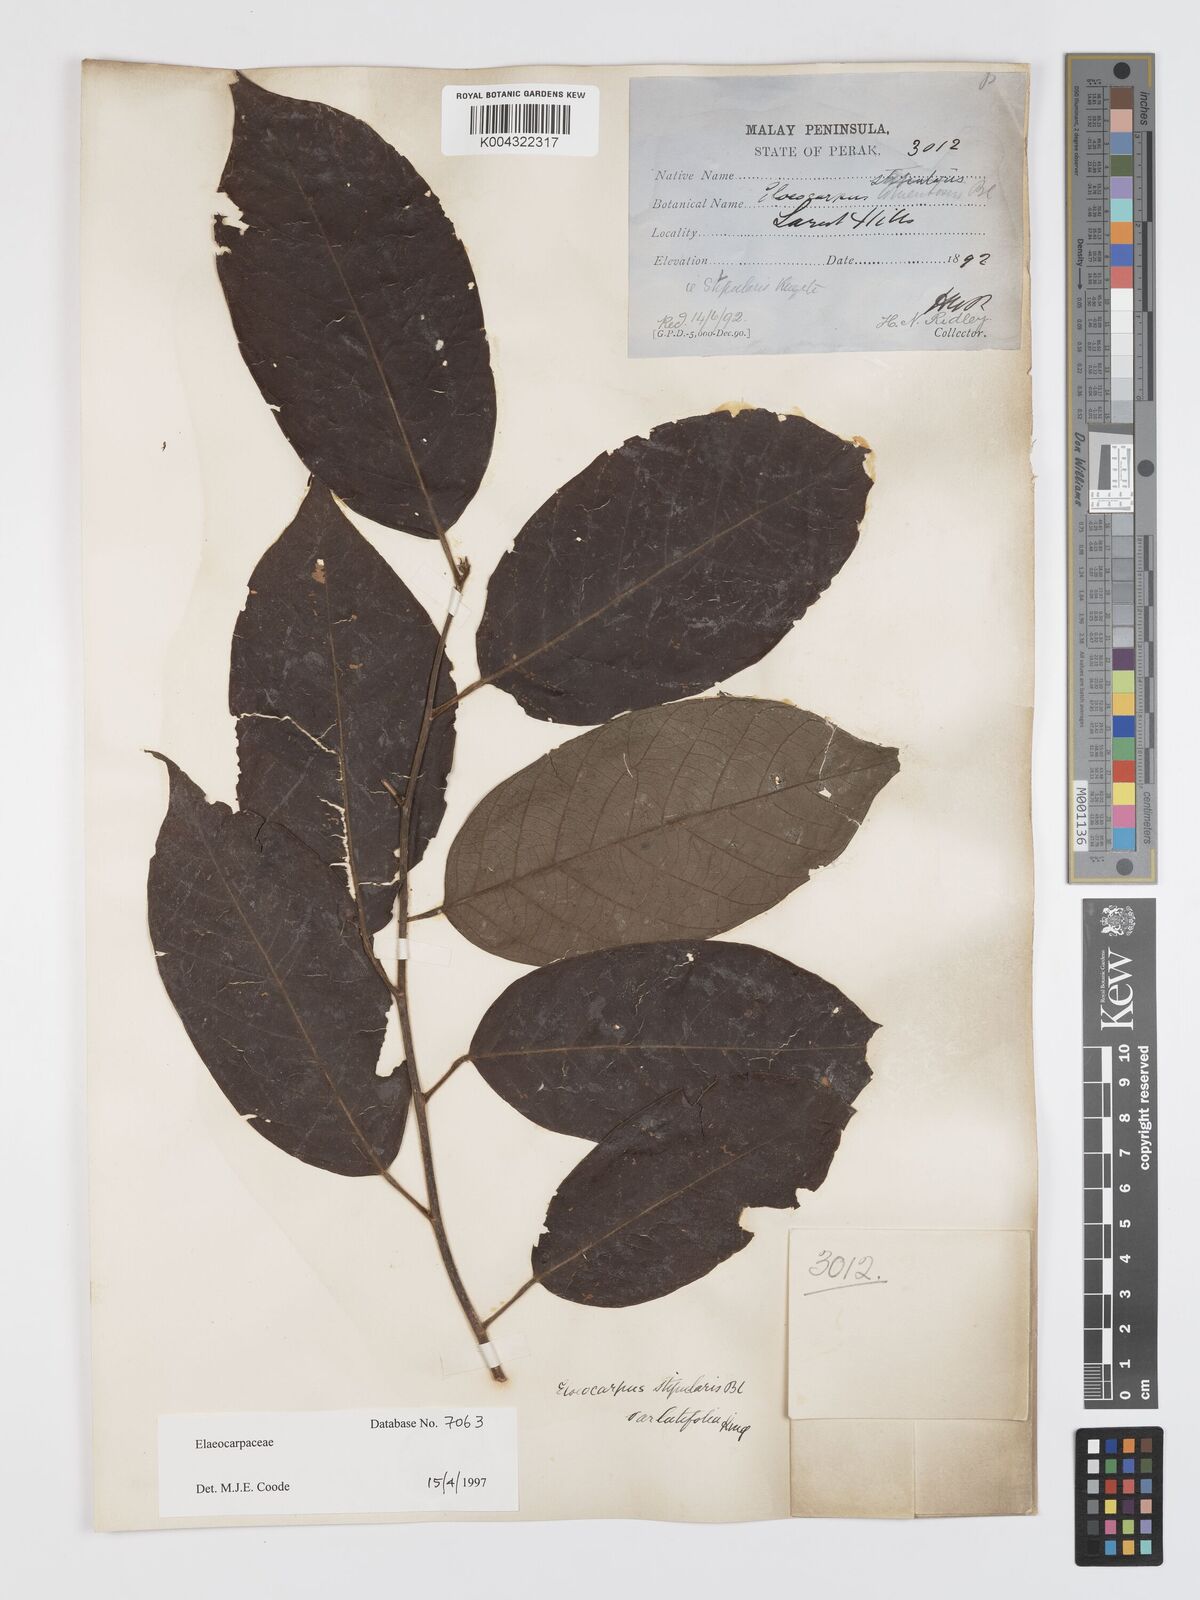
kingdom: Plantae
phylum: Tracheophyta
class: Magnoliopsida
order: Oxalidales
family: Elaeocarpaceae
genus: Elaeocarpus
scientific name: Elaeocarpus stipularis
